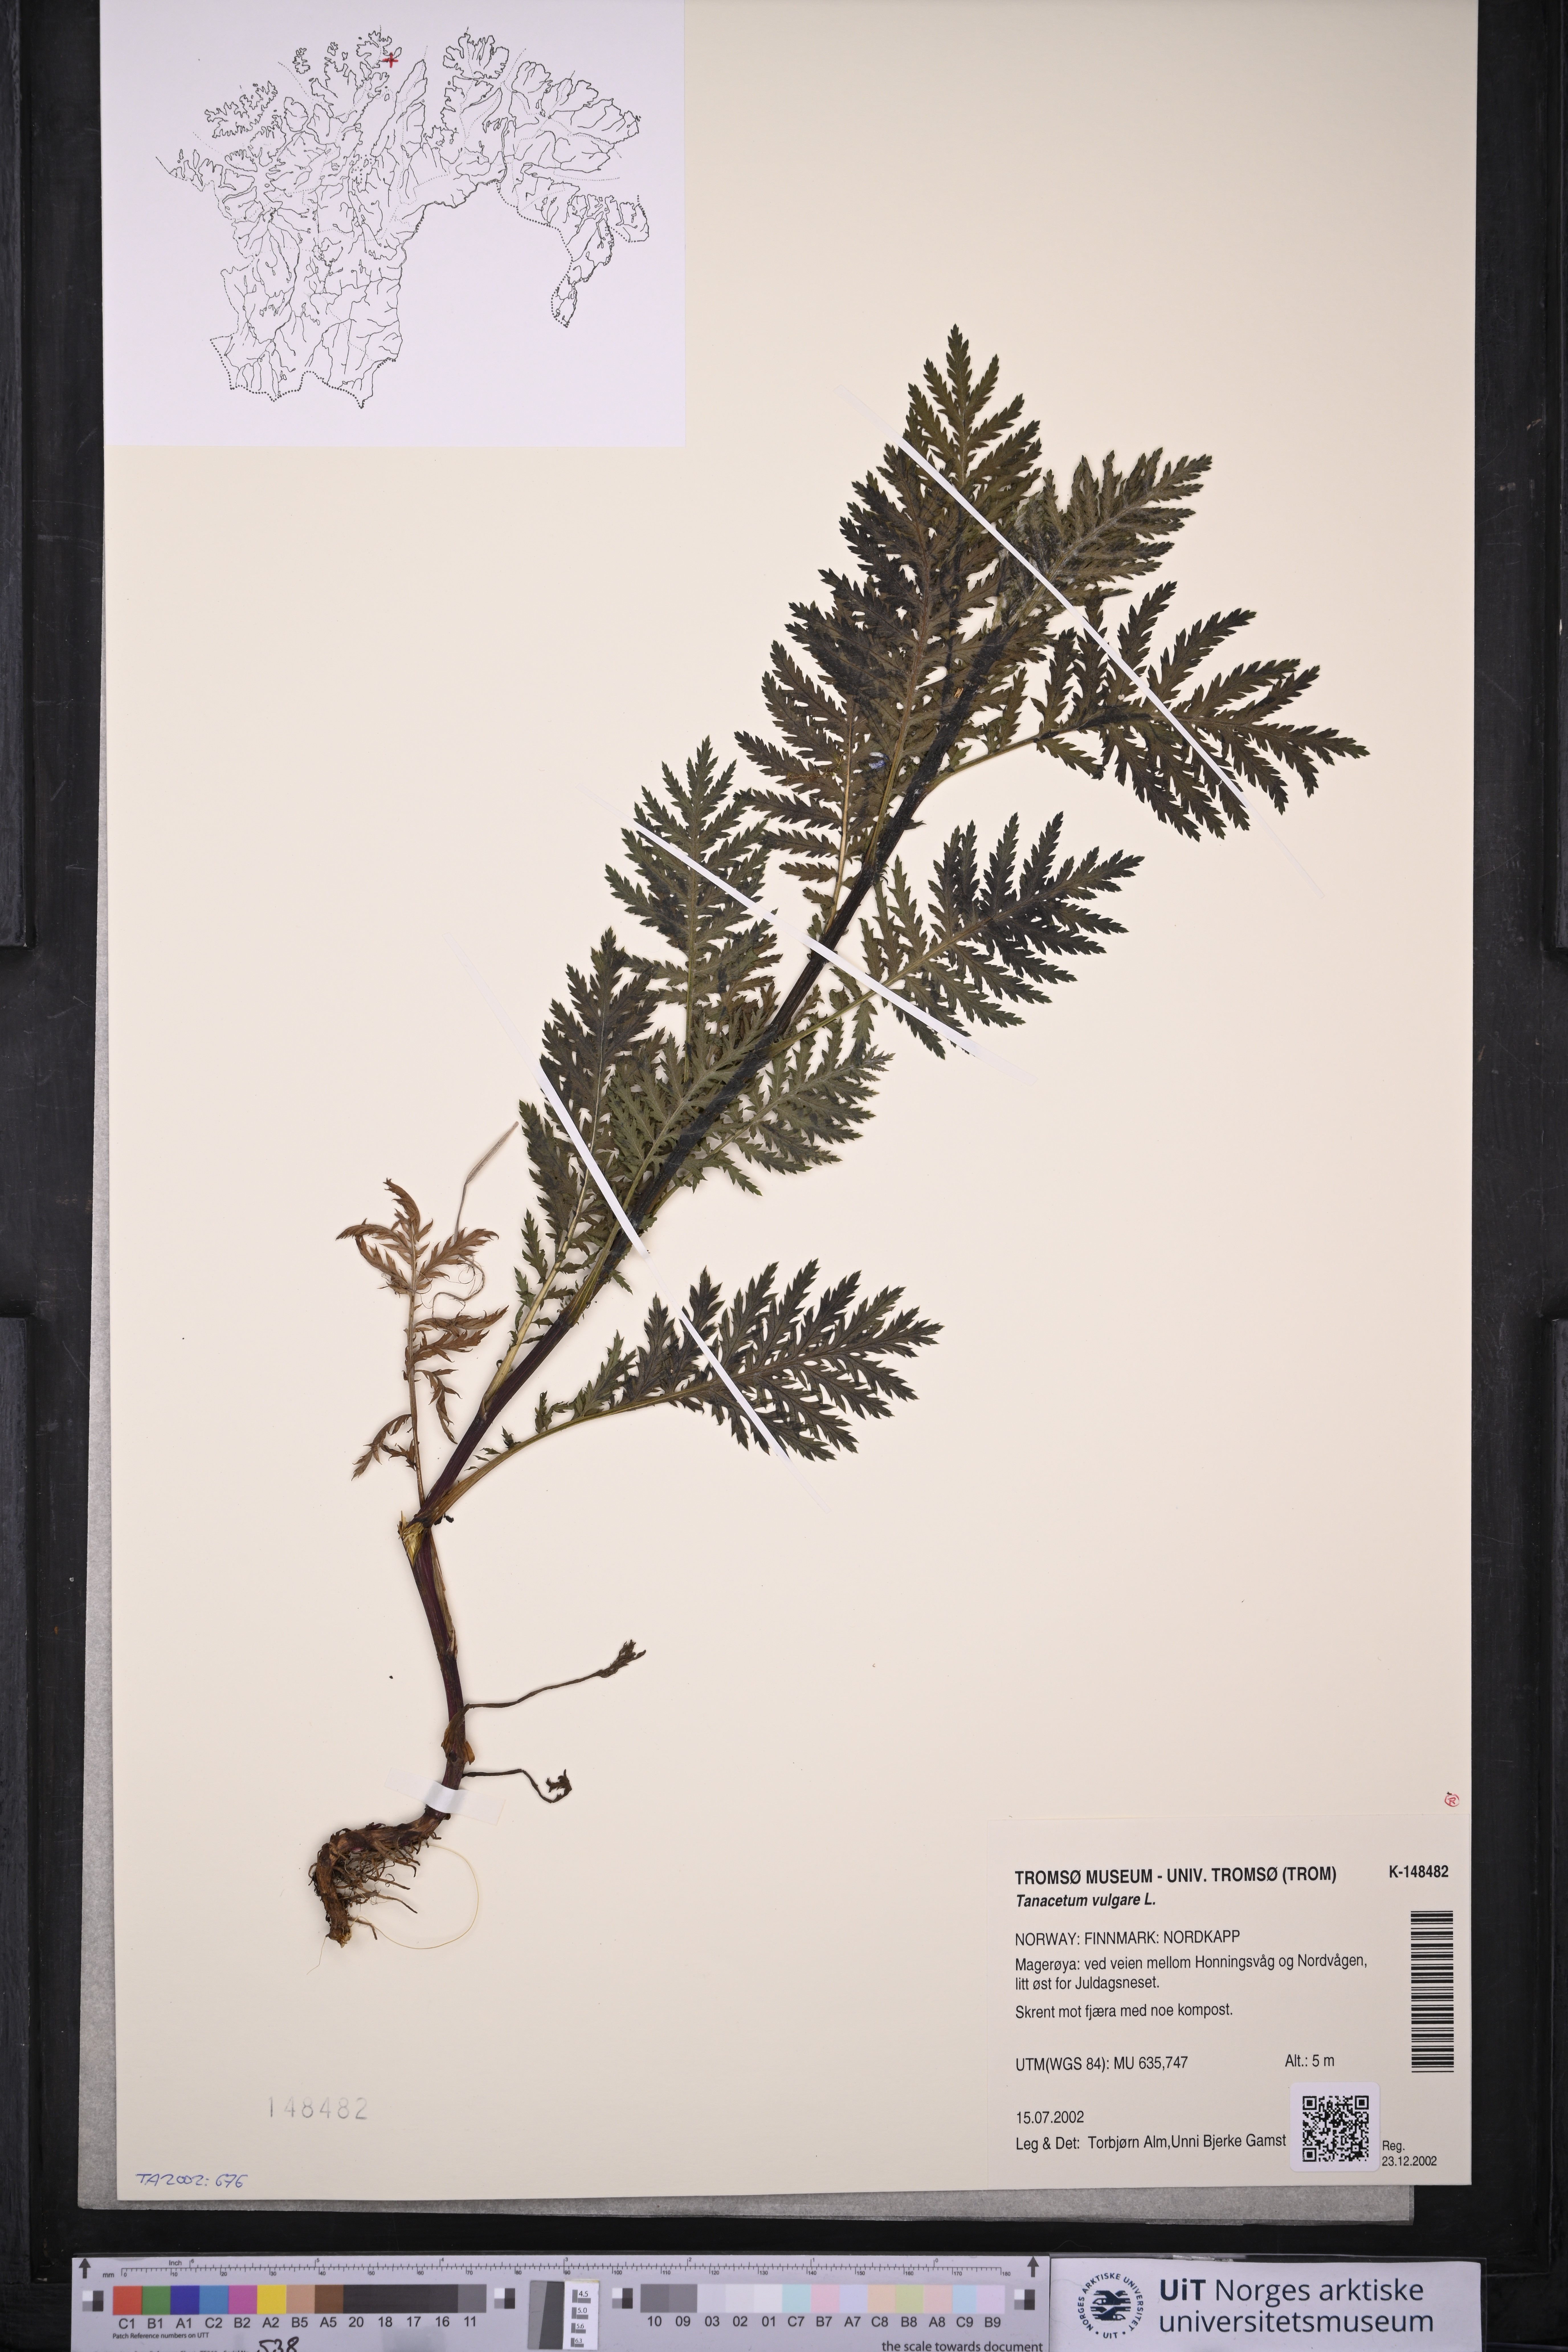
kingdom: Plantae
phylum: Tracheophyta
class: Magnoliopsida
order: Asterales
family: Asteraceae
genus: Tanacetum
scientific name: Tanacetum vulgare
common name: Common tansy
